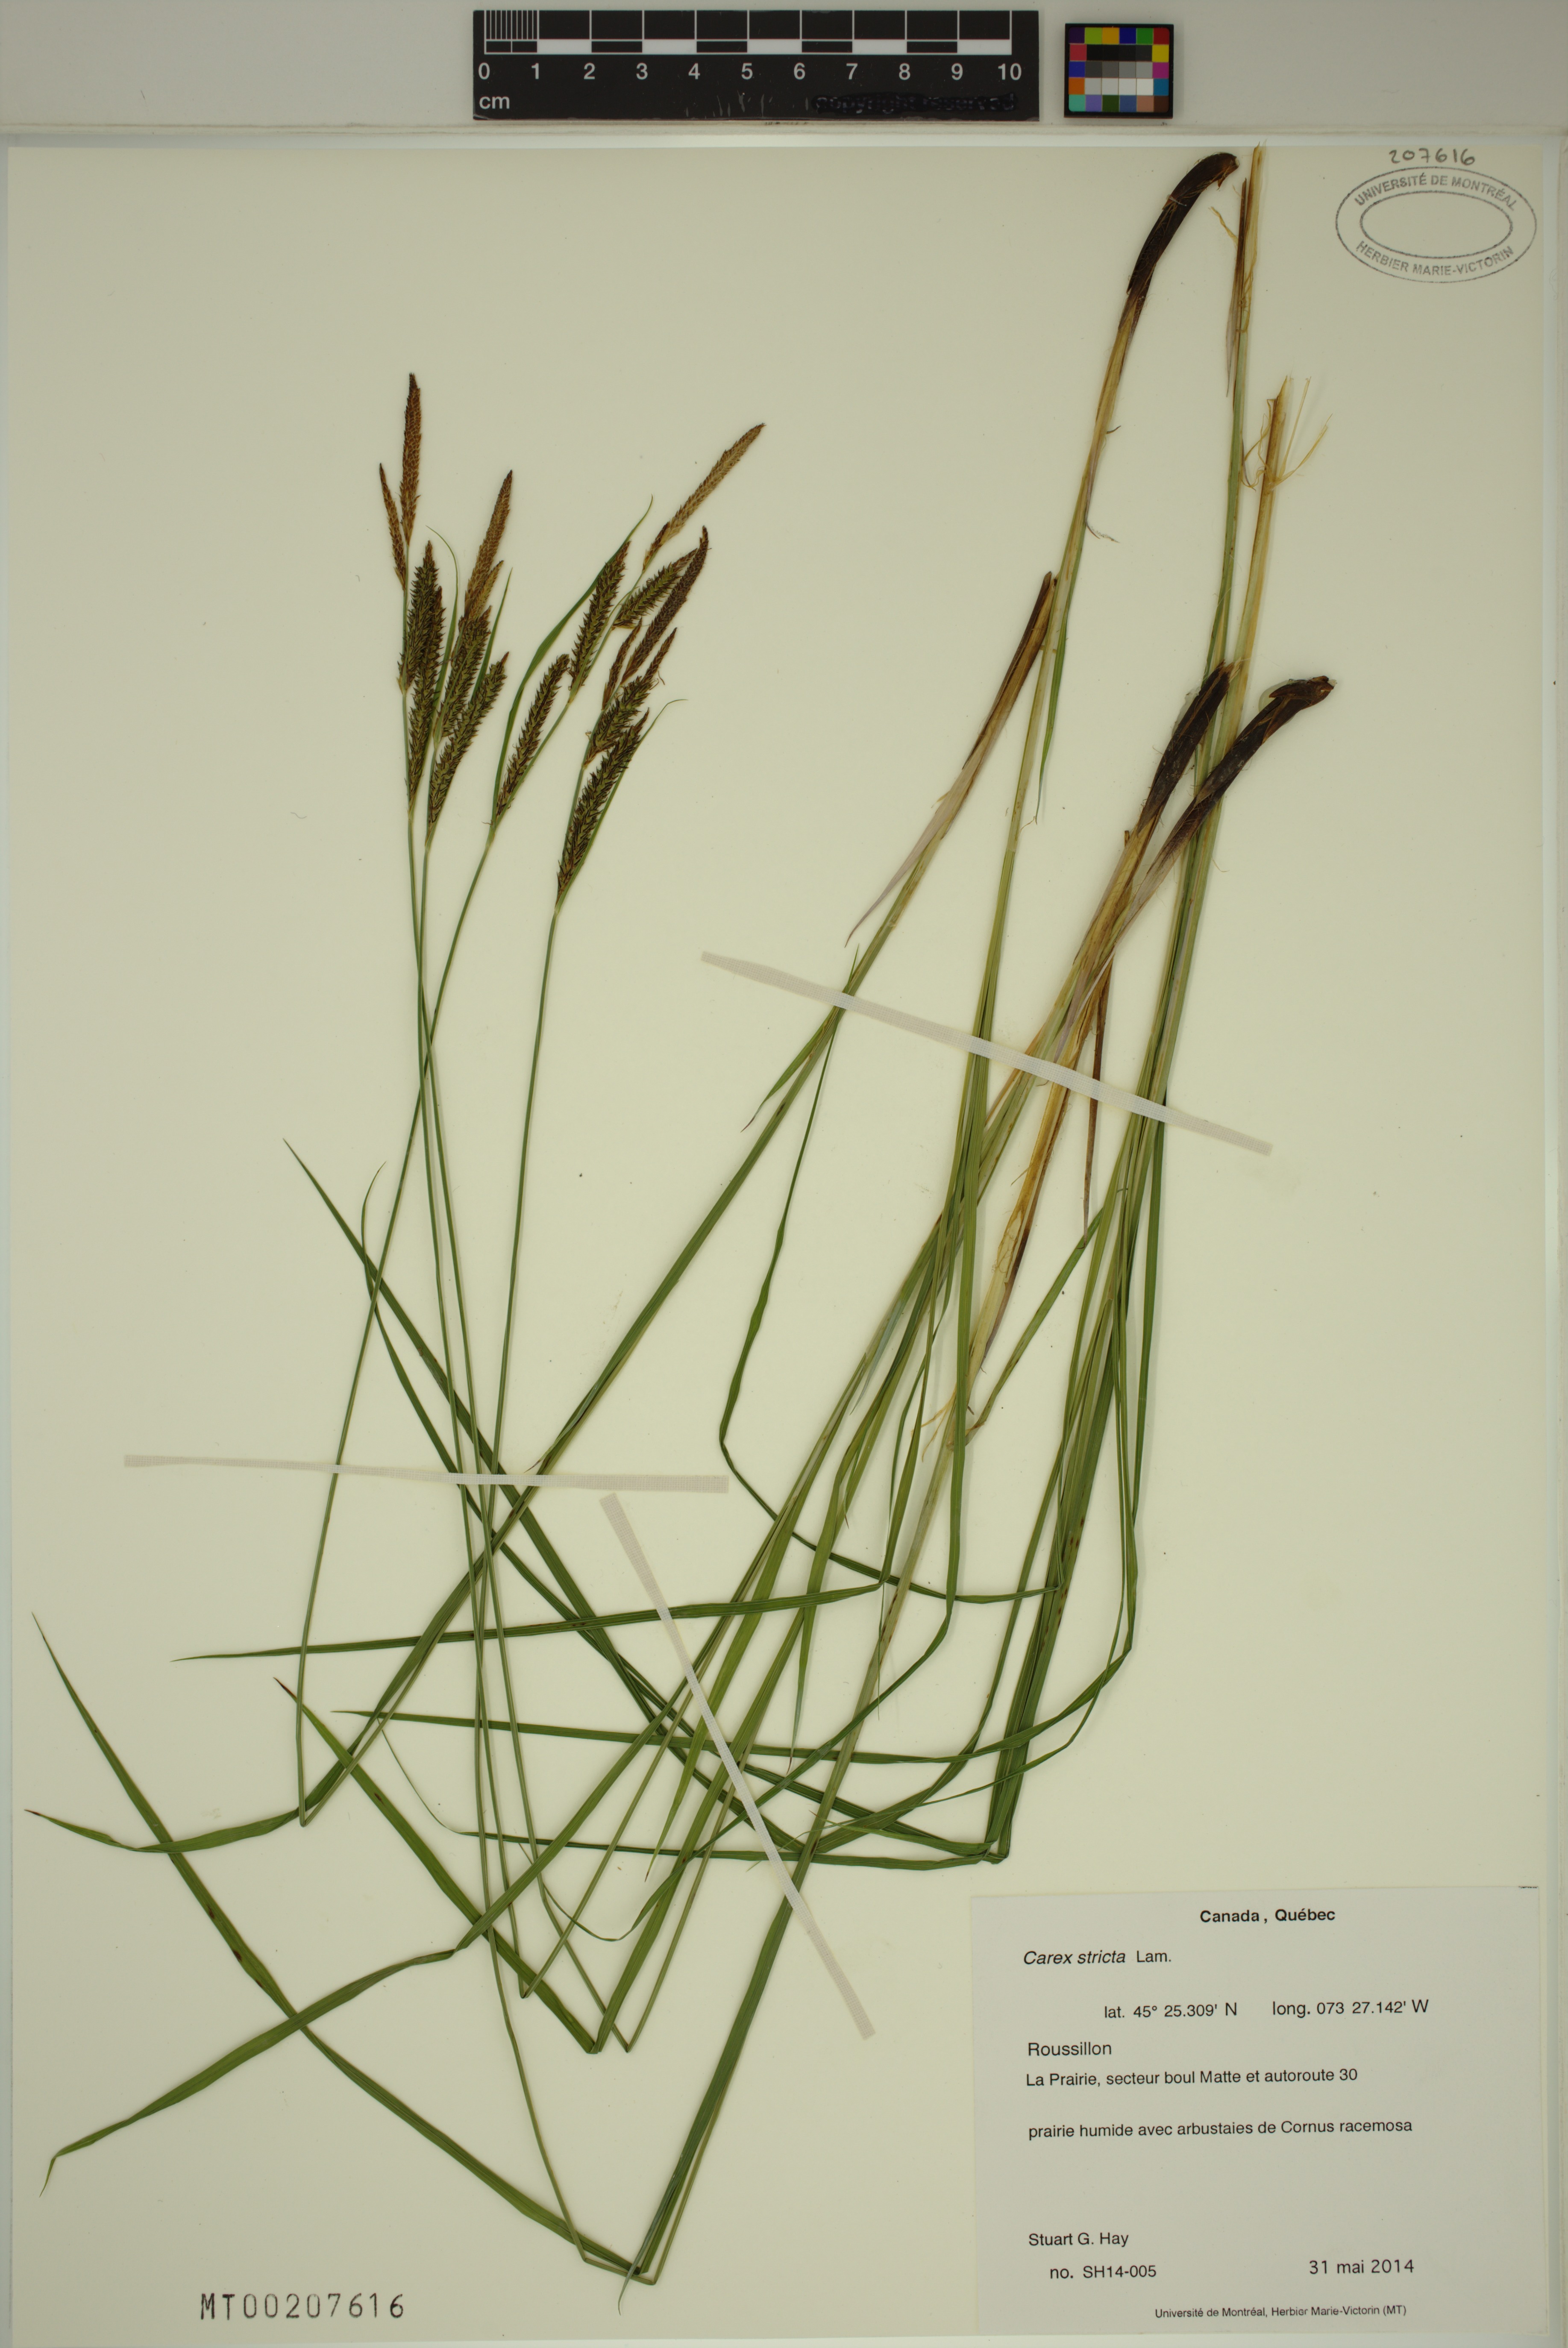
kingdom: Plantae
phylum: Tracheophyta
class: Liliopsida
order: Poales
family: Cyperaceae
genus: Carex
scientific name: Carex stricta
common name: Hummock sedge
